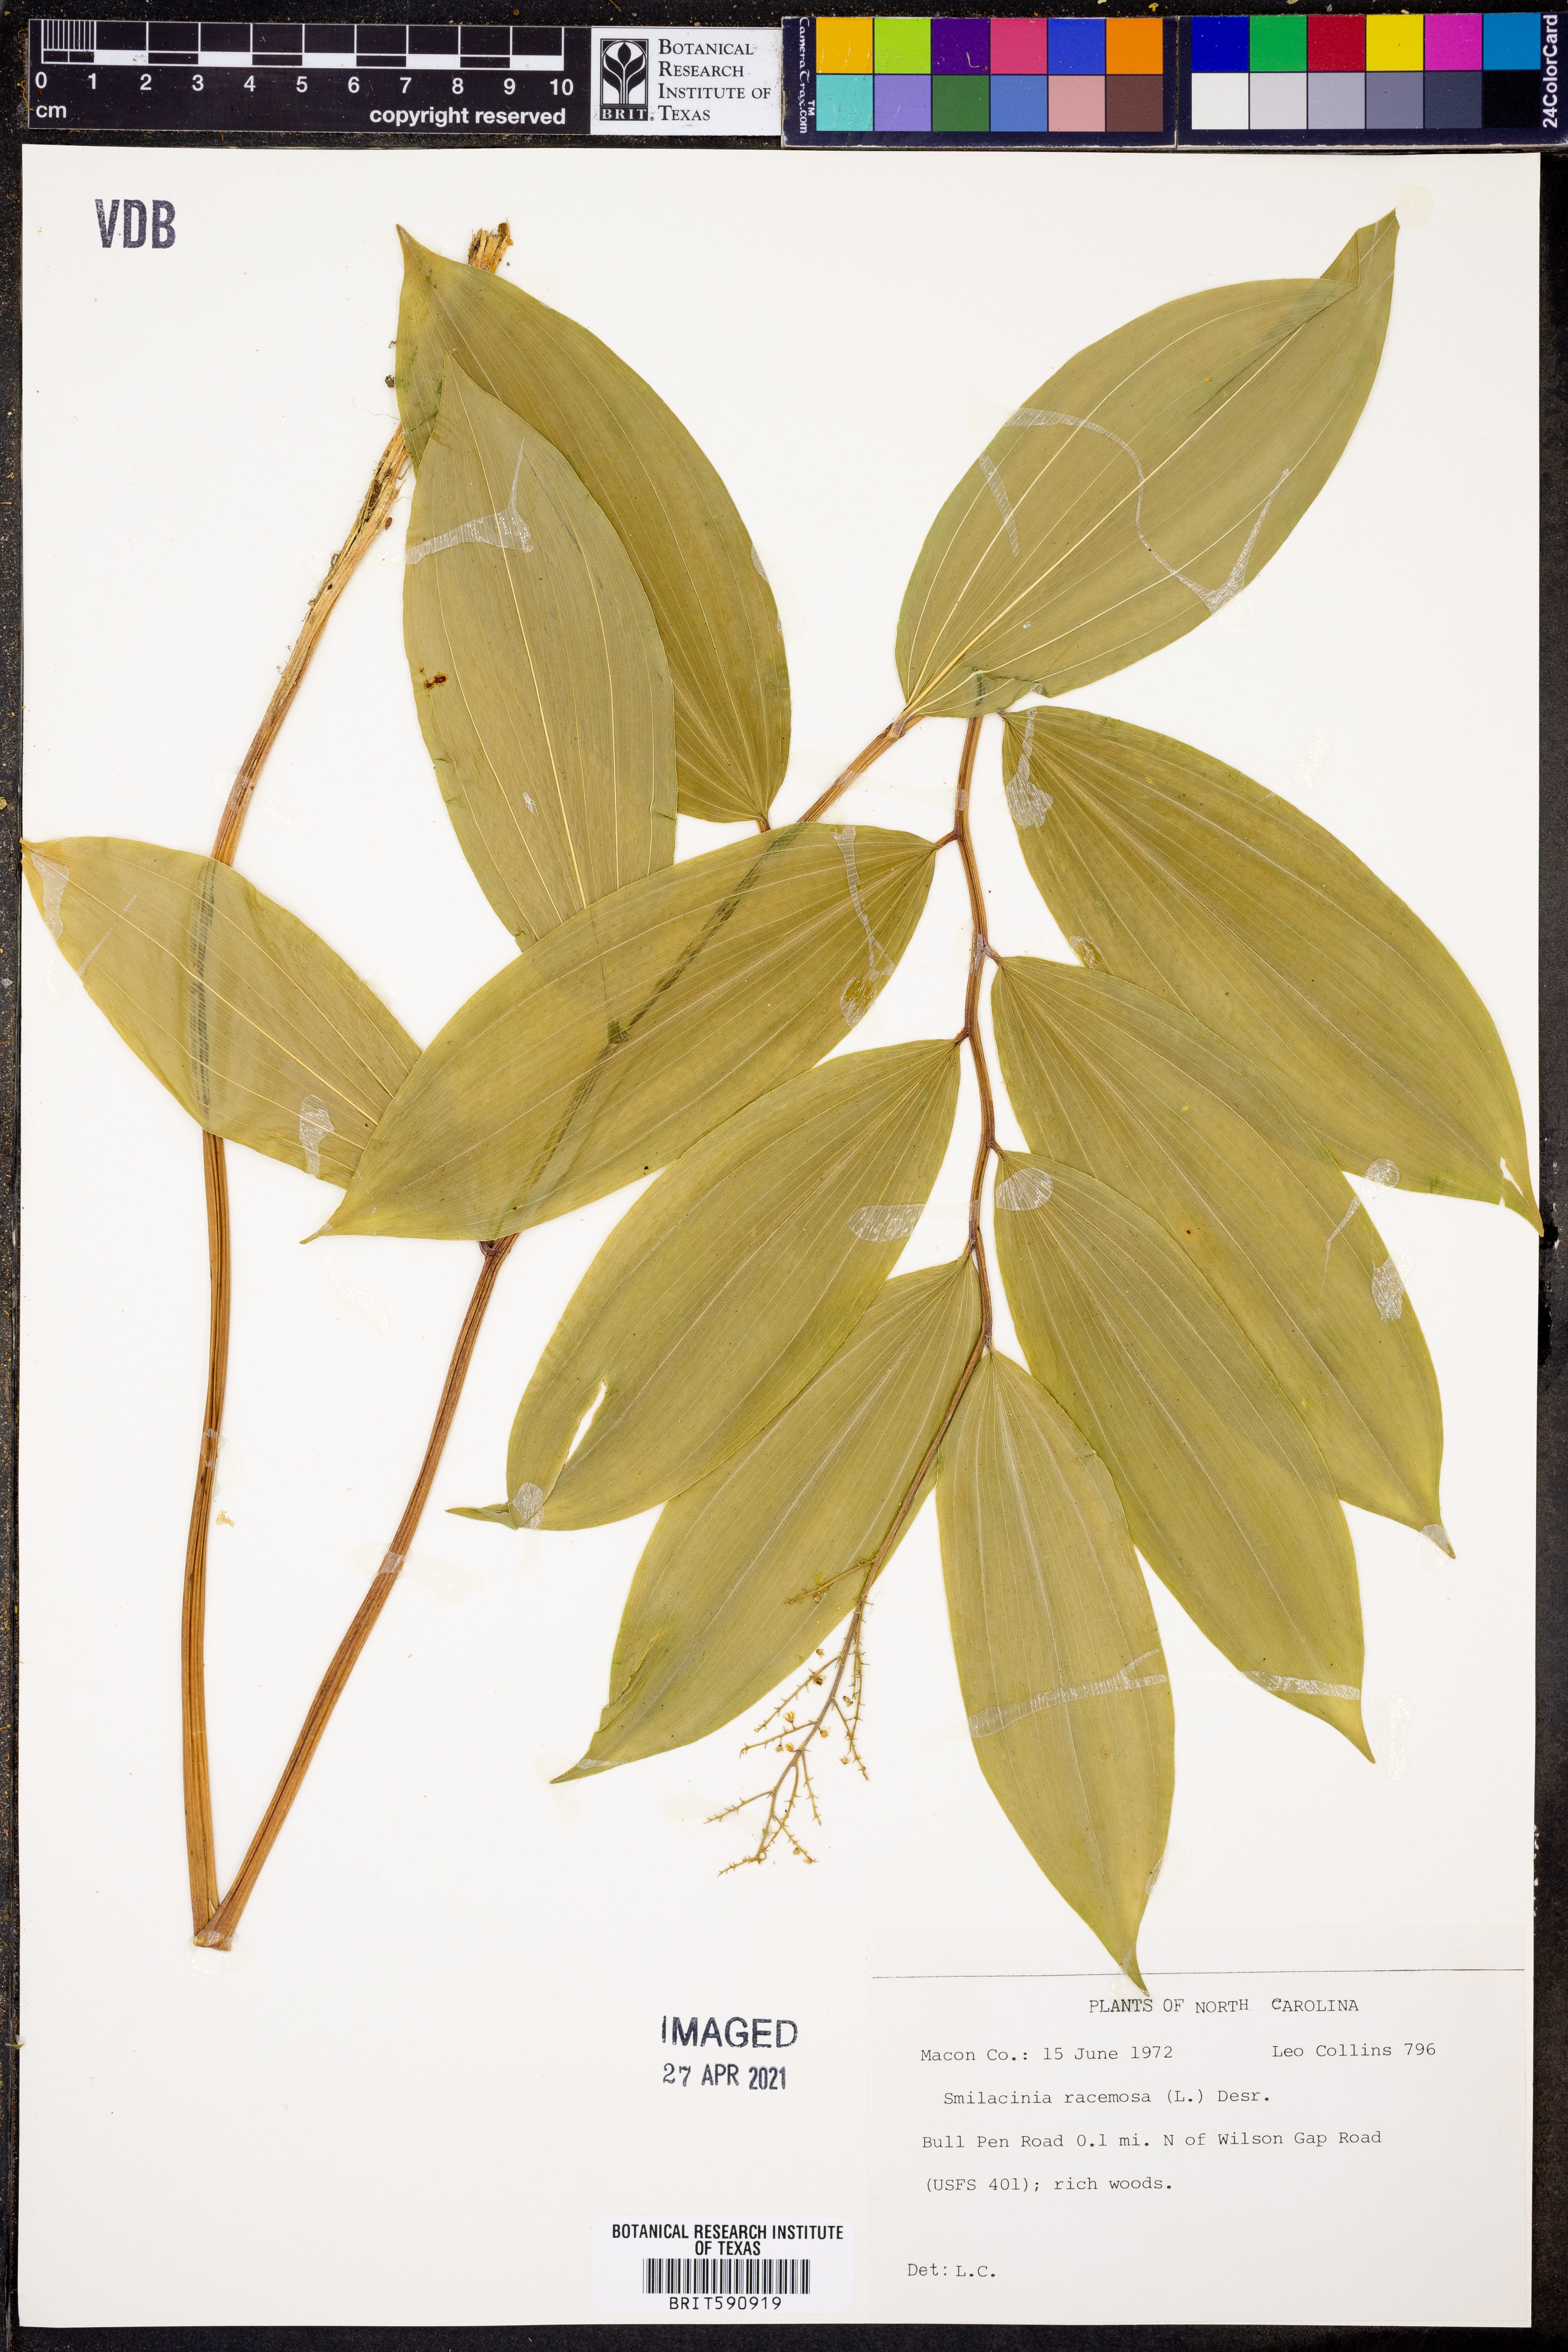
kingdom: Plantae
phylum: Tracheophyta
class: Liliopsida
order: Asparagales
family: Asparagaceae
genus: Maianthemum
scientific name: Maianthemum racemosum
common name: False spikenard
